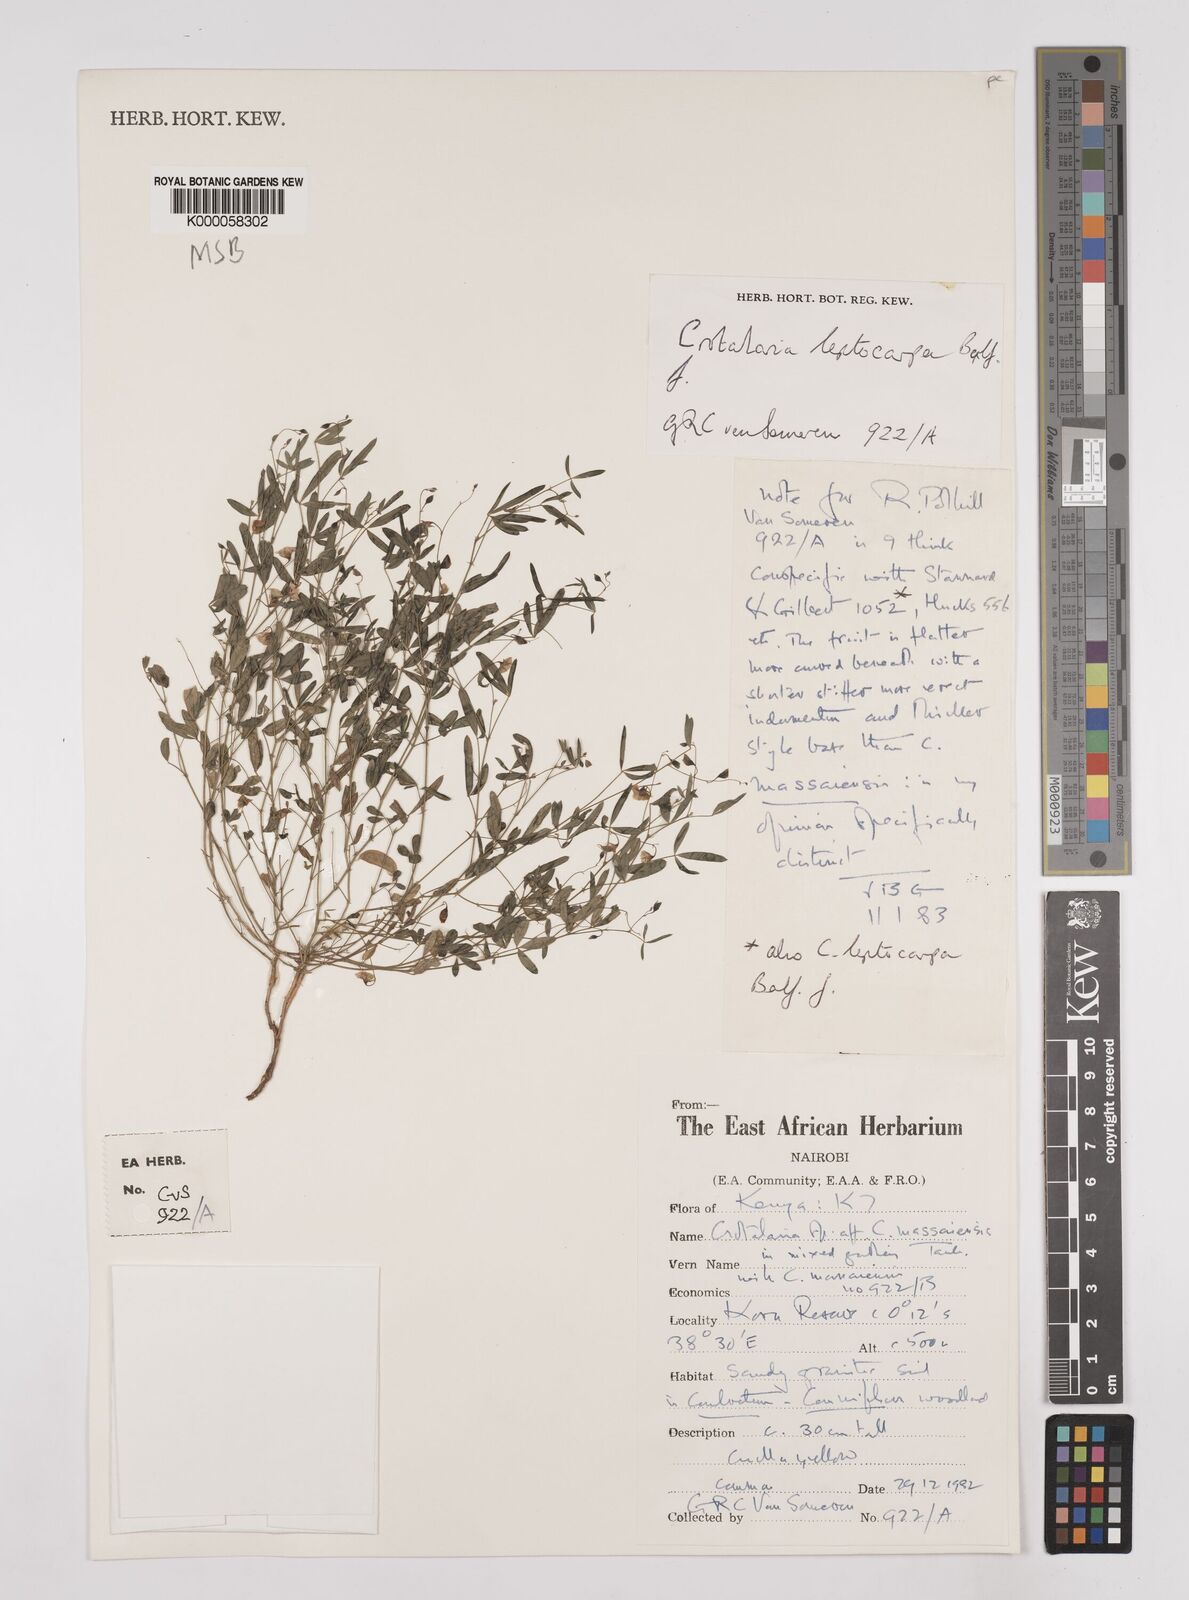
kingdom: Plantae
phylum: Tracheophyta
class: Magnoliopsida
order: Fabales
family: Fabaceae
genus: Crotalaria
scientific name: Crotalaria leptocarpa
